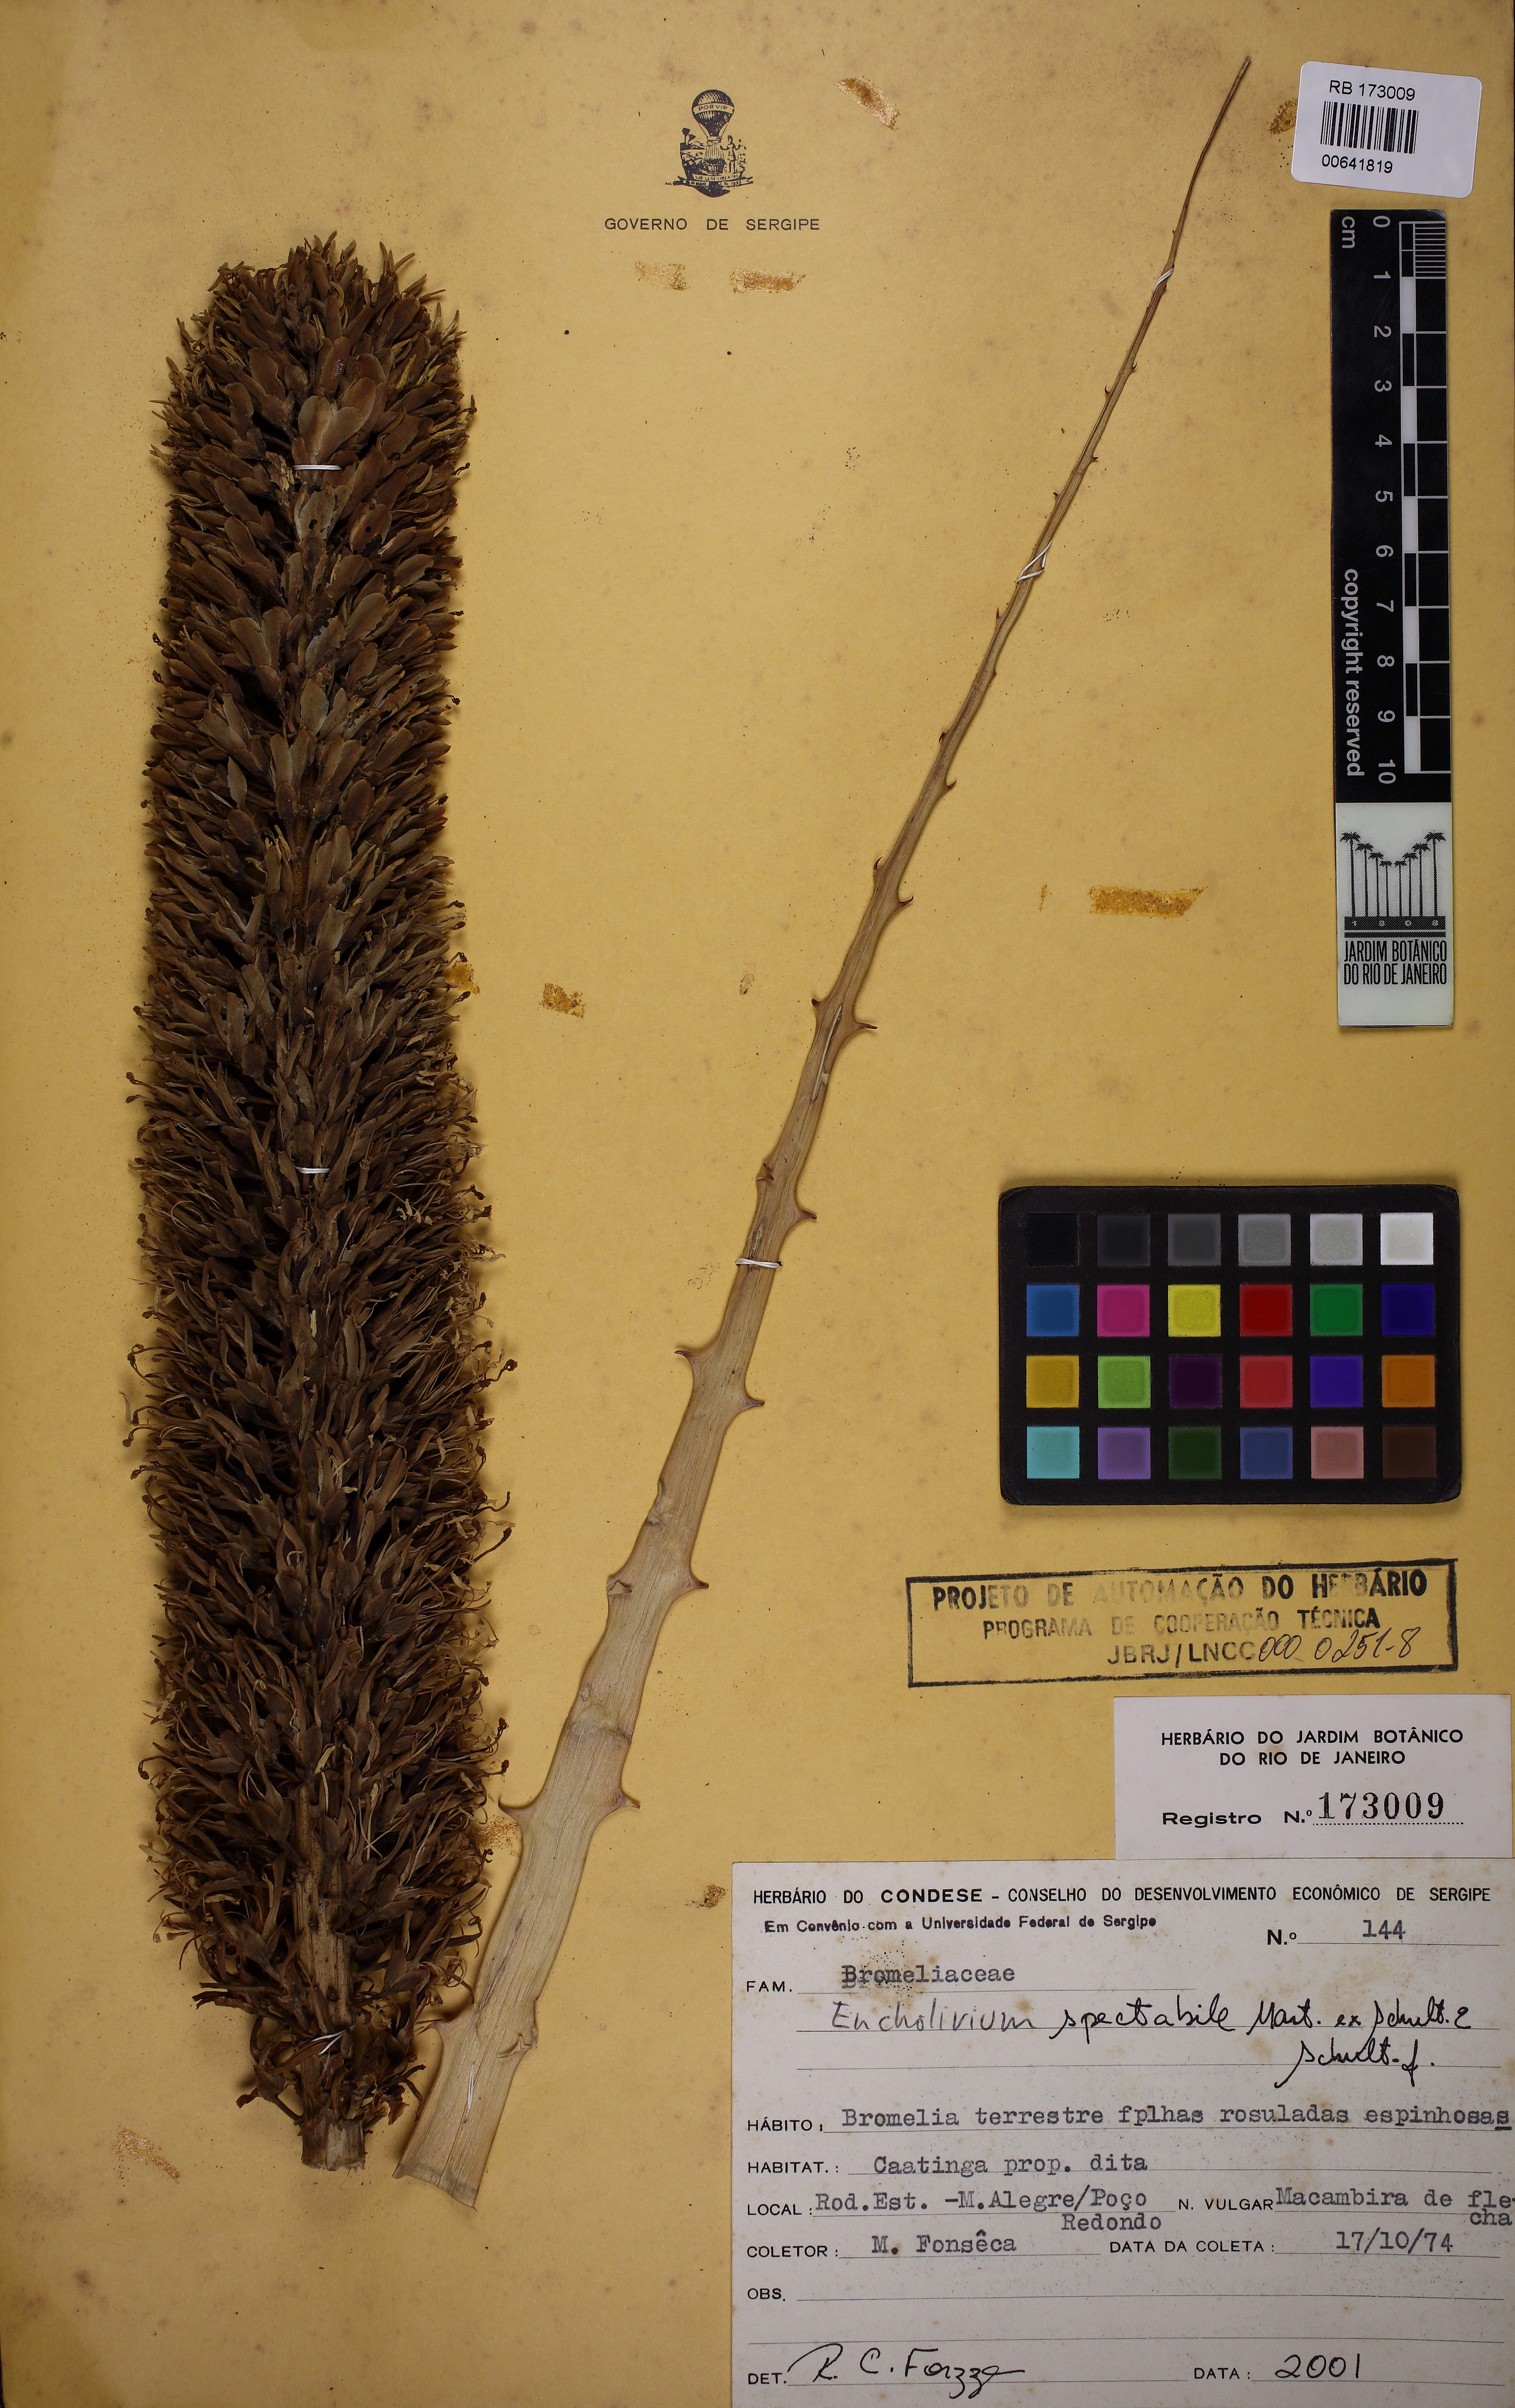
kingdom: Plantae
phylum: Tracheophyta
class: Liliopsida
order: Poales
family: Bromeliaceae
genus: Encholirium
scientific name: Encholirium spectabile
